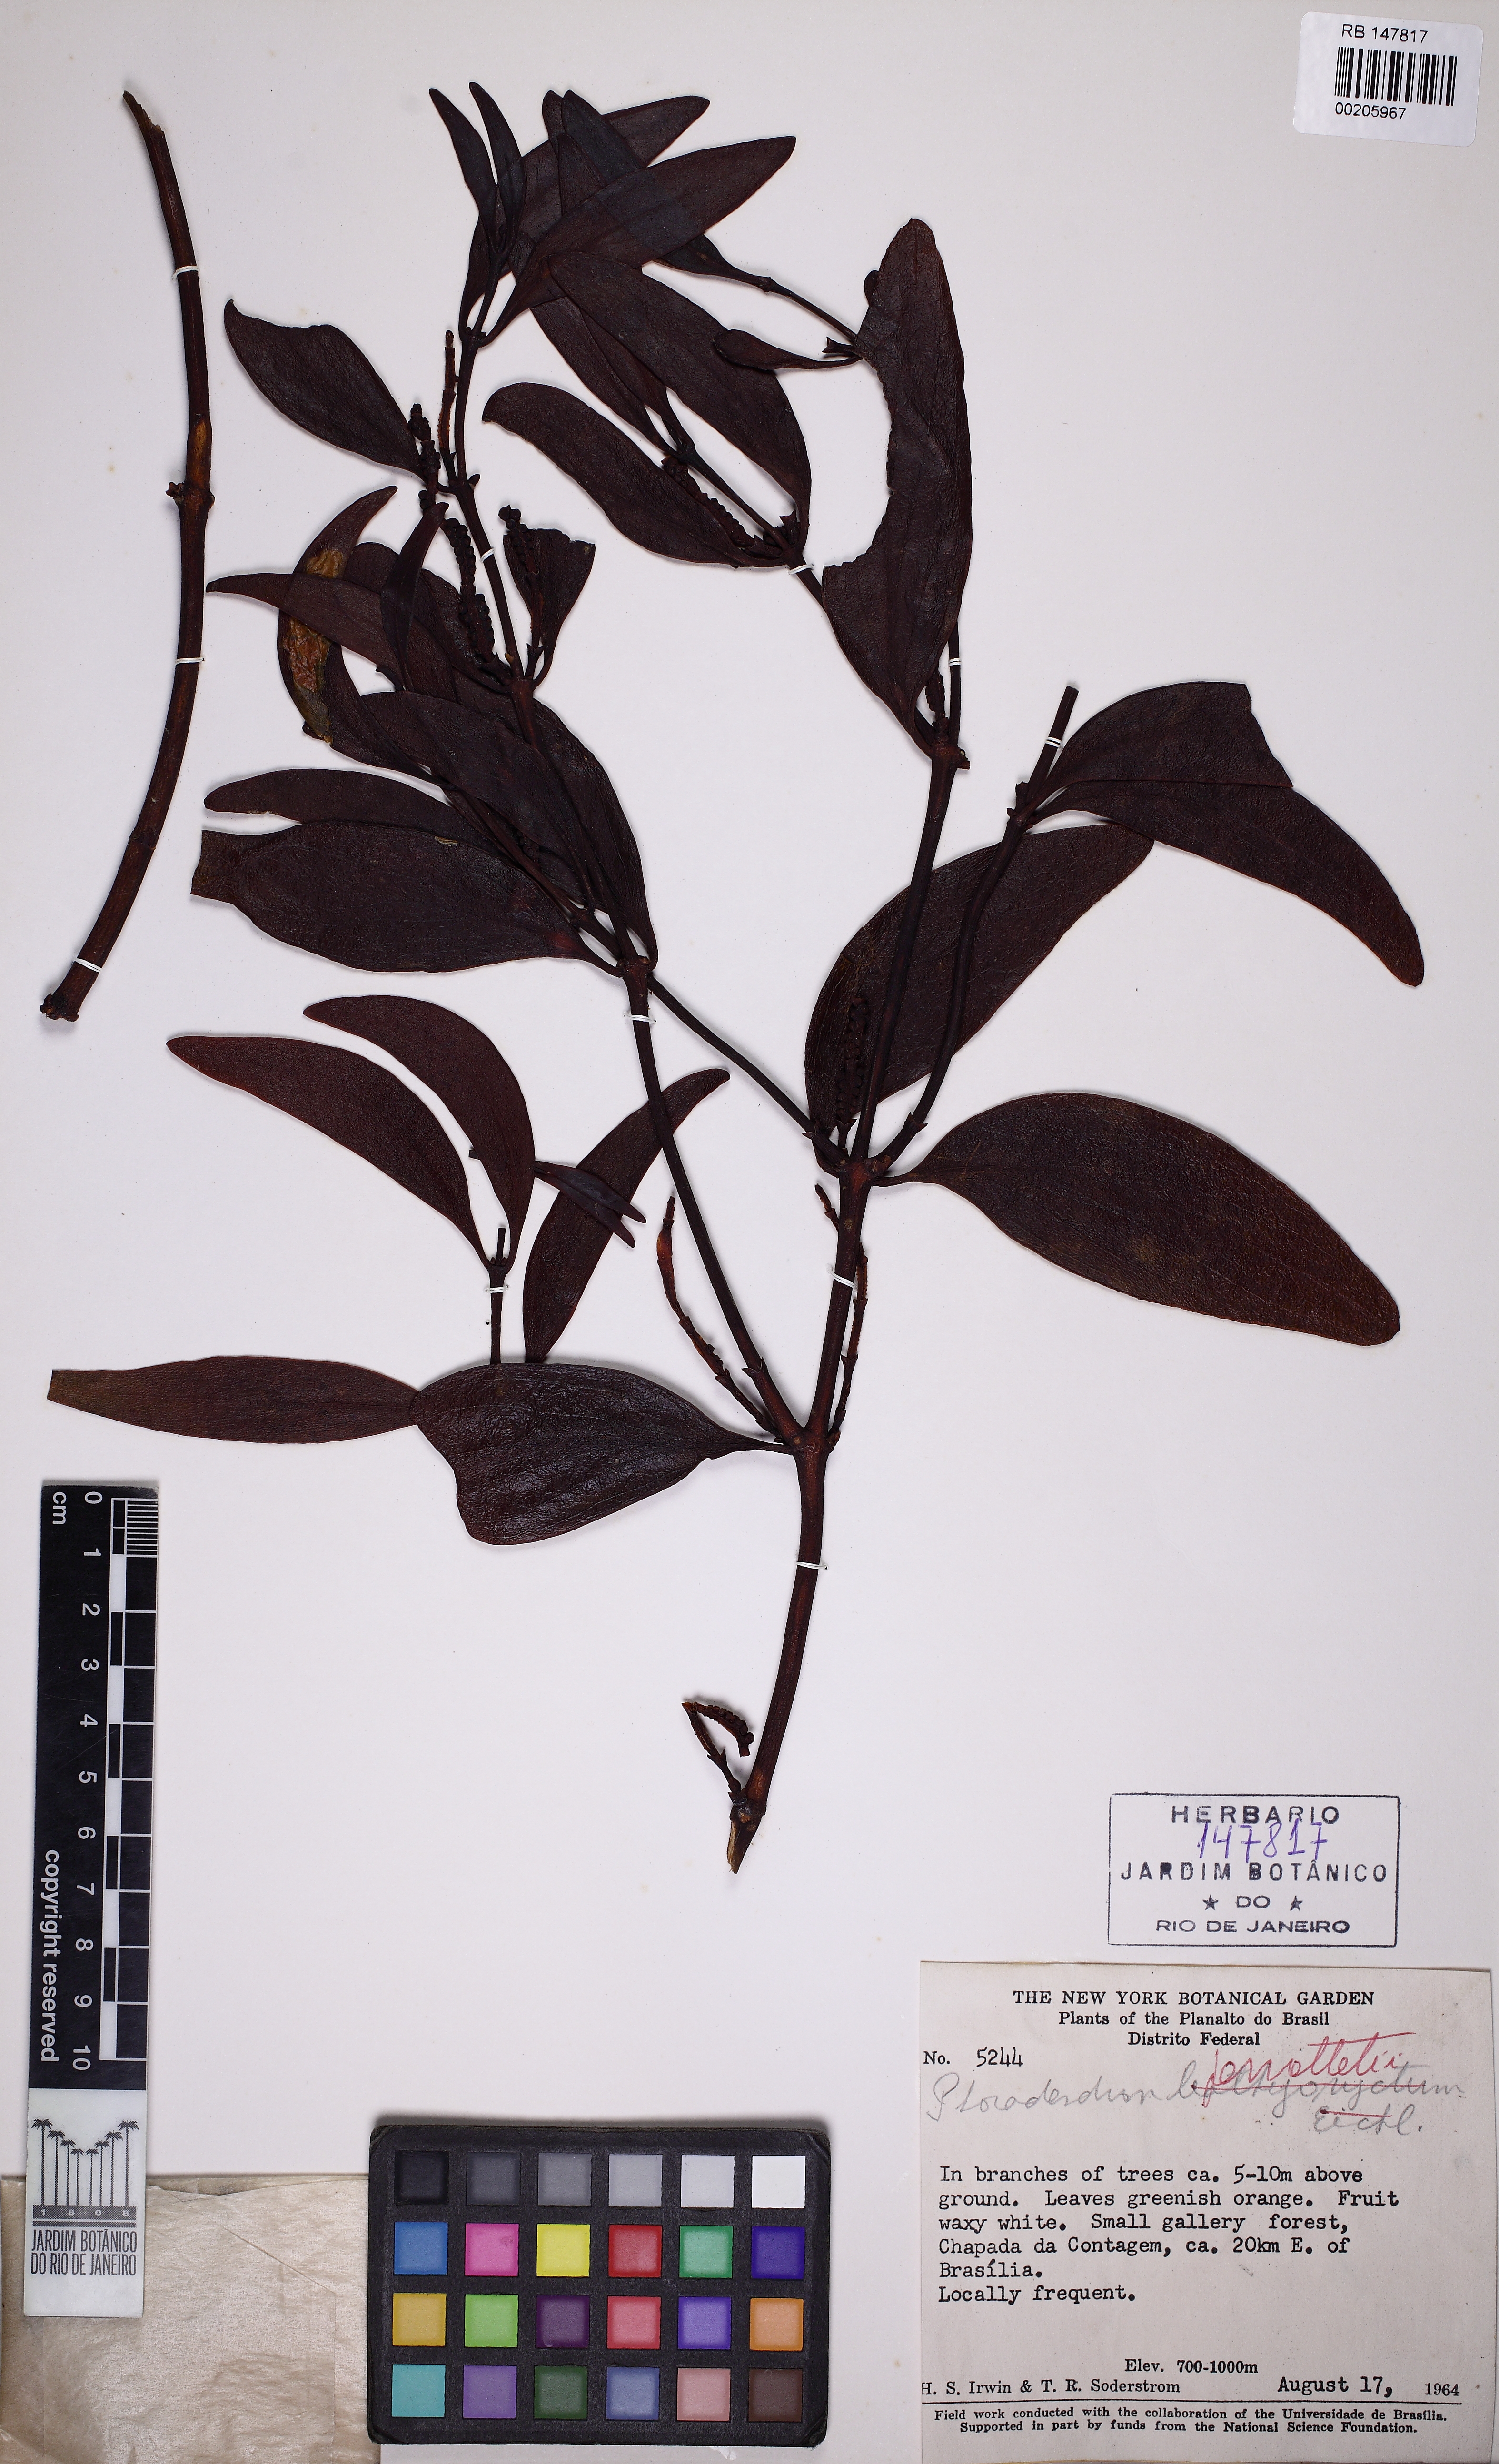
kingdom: Plantae
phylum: Tracheophyta
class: Magnoliopsida
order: Santalales
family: Viscaceae
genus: Phoradendron
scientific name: Phoradendron perrottetii
